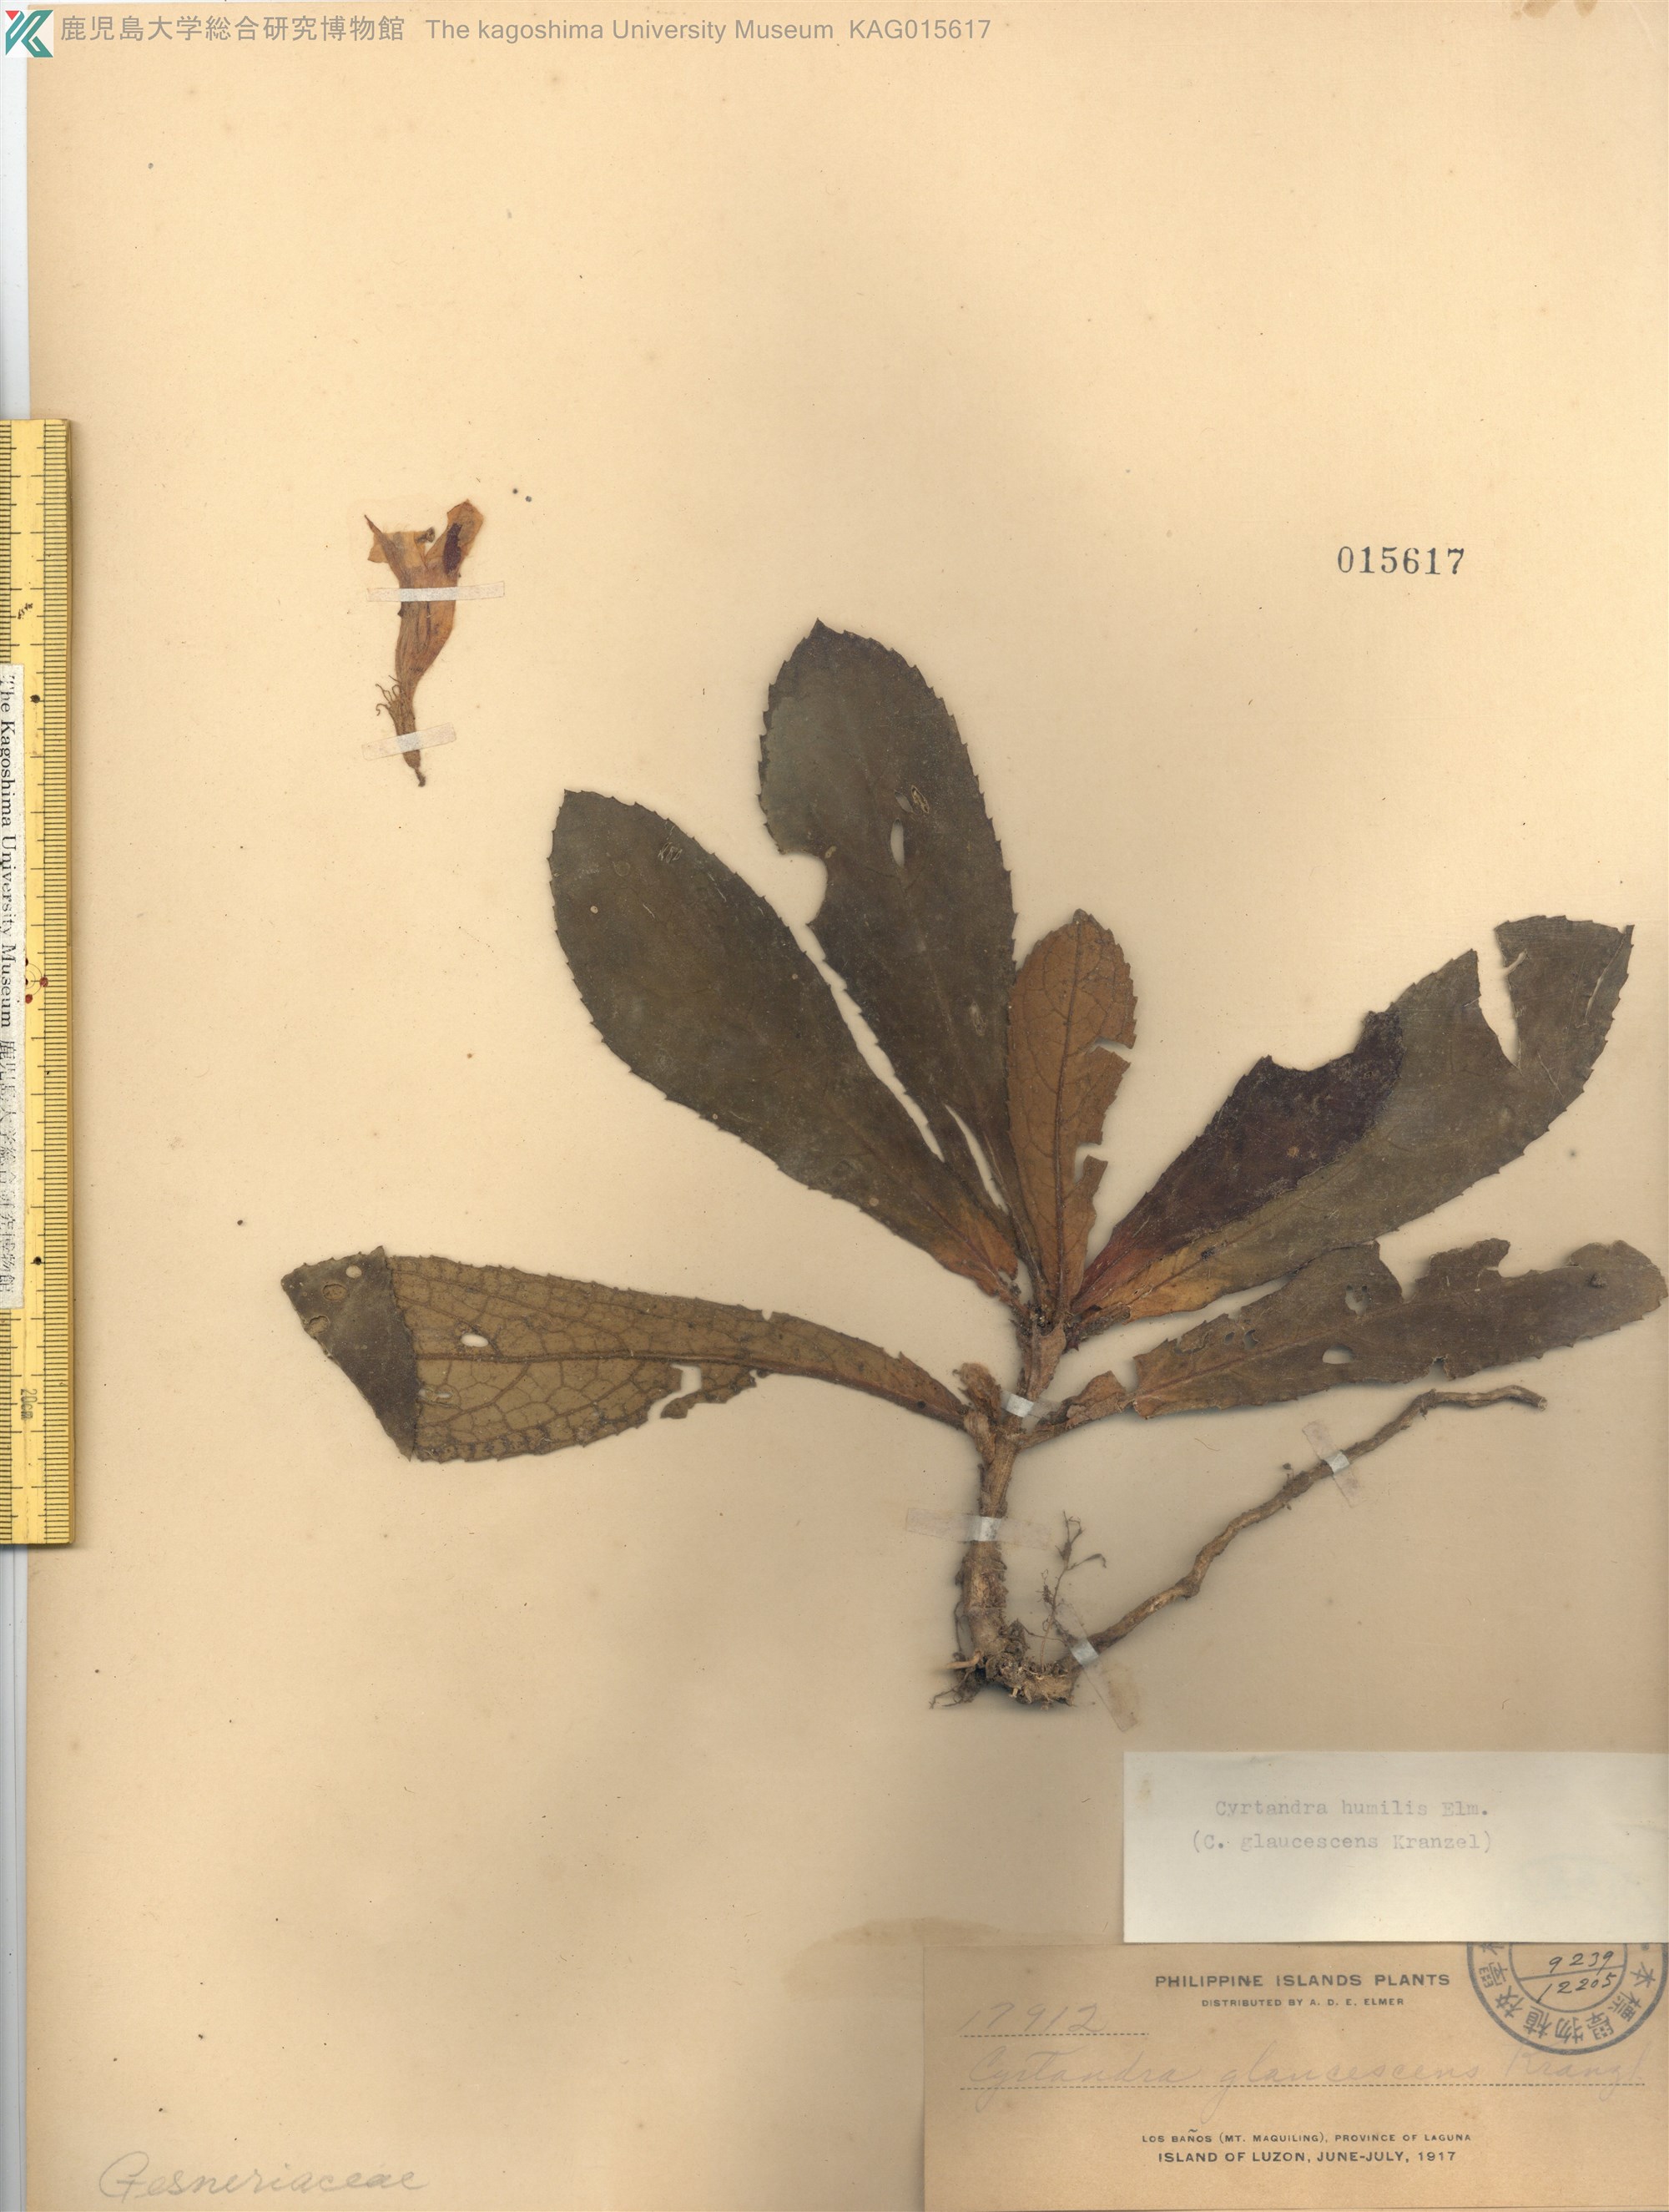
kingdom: Plantae
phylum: Tracheophyta
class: Magnoliopsida
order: Lamiales
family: Gesneriaceae
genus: Cyrtandra
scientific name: Cyrtandra coriaceifolia
